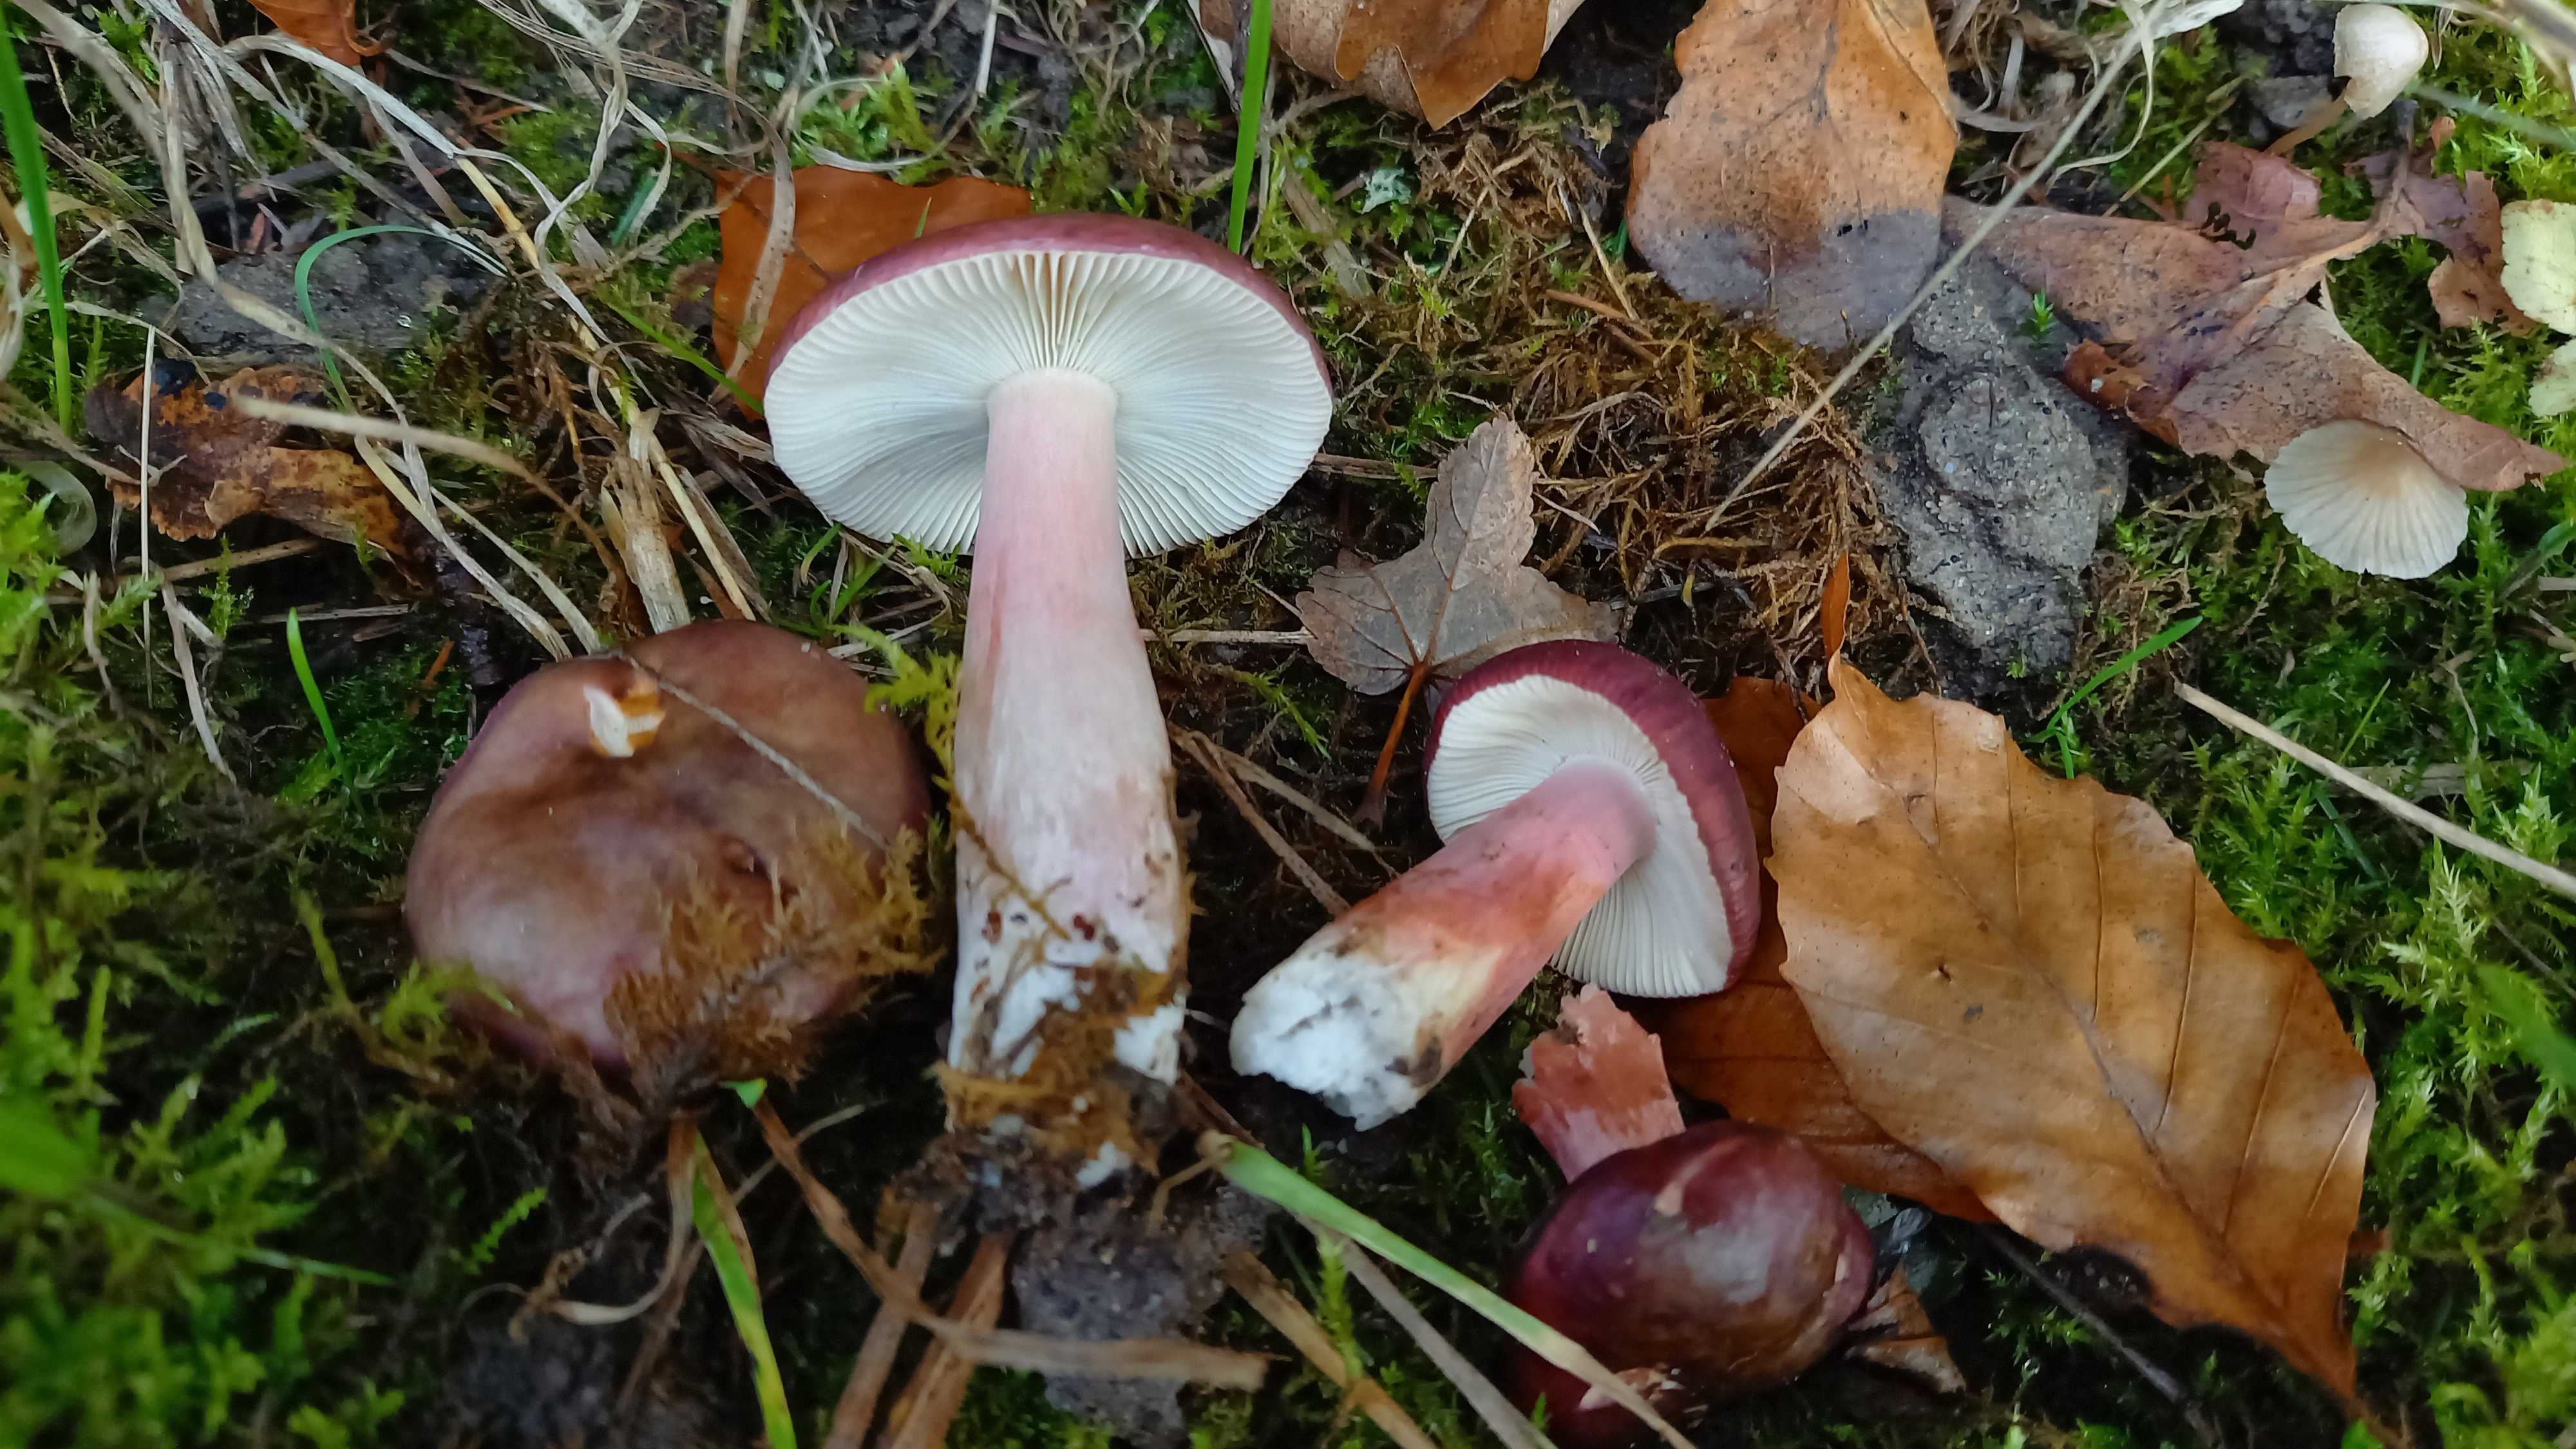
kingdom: Fungi
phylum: Basidiomycota
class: Agaricomycetes
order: Russulales
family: Russulaceae
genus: Russula
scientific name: Russula queletii
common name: Quélets skørhat
